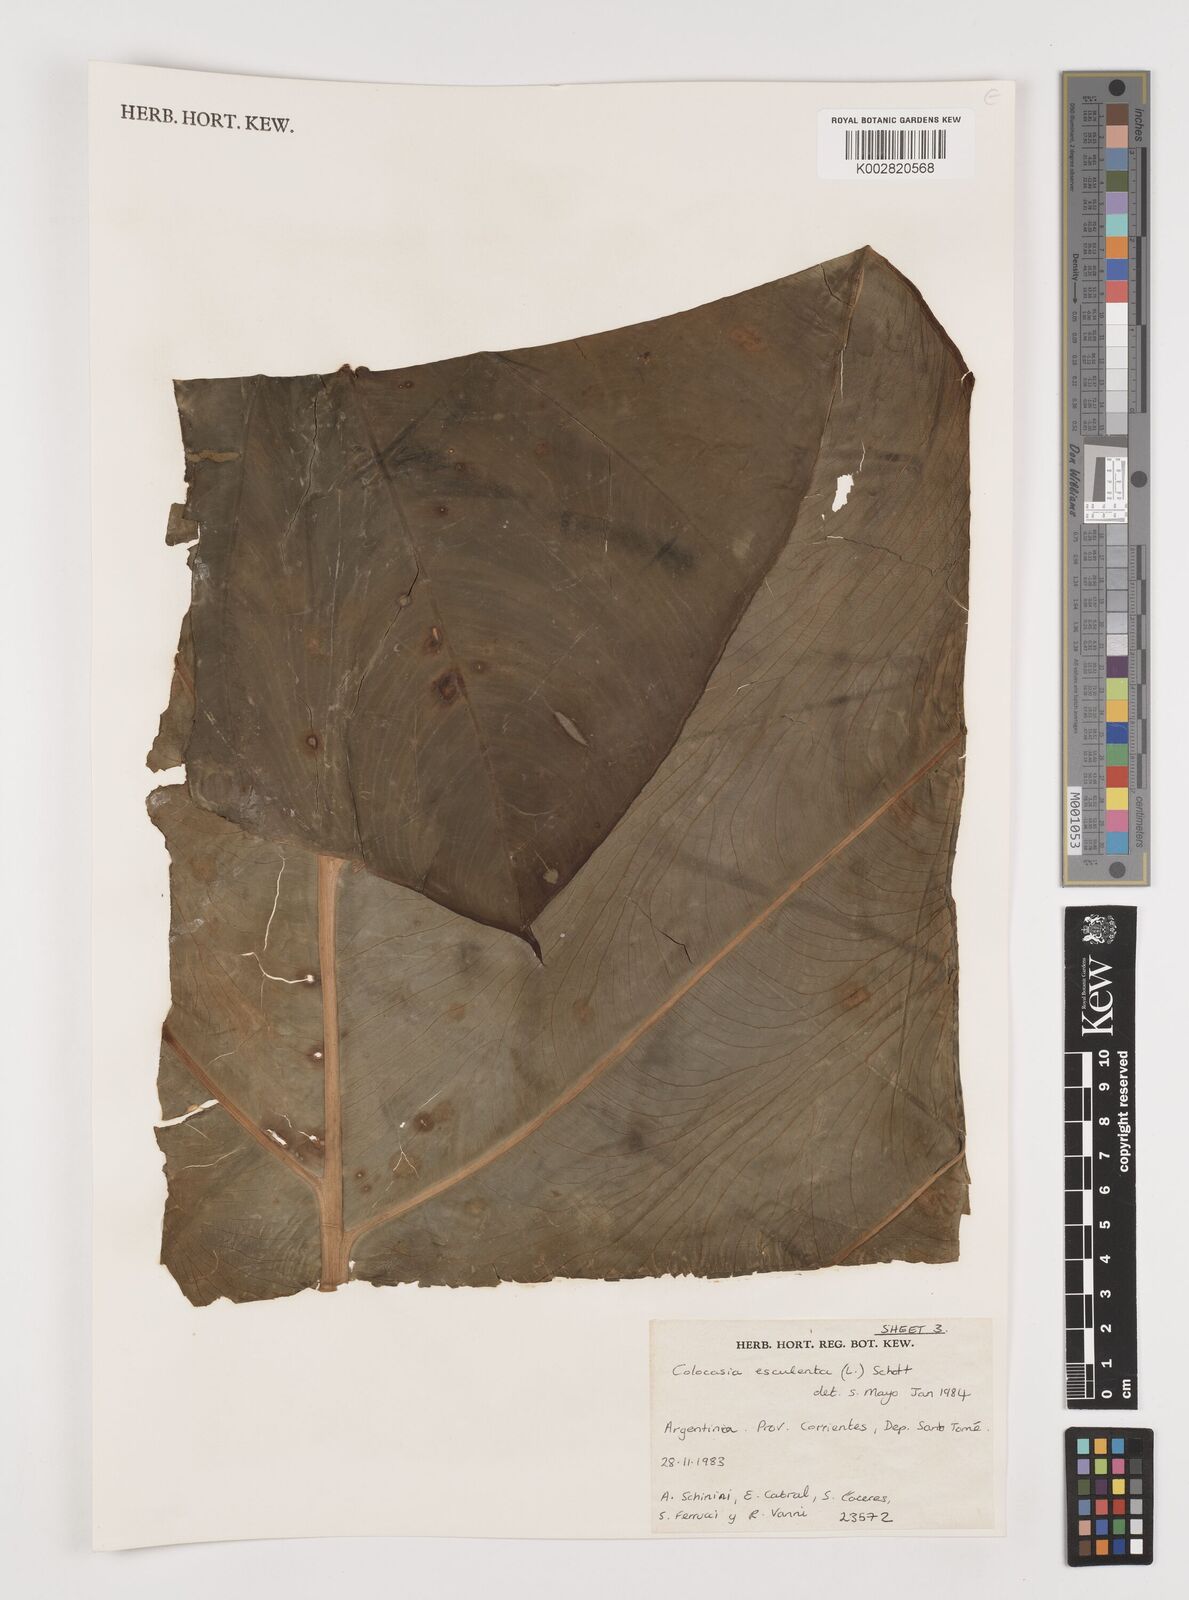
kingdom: Plantae
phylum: Tracheophyta
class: Liliopsida
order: Alismatales
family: Araceae
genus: Colocasia
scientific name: Colocasia esculenta
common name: Taro
